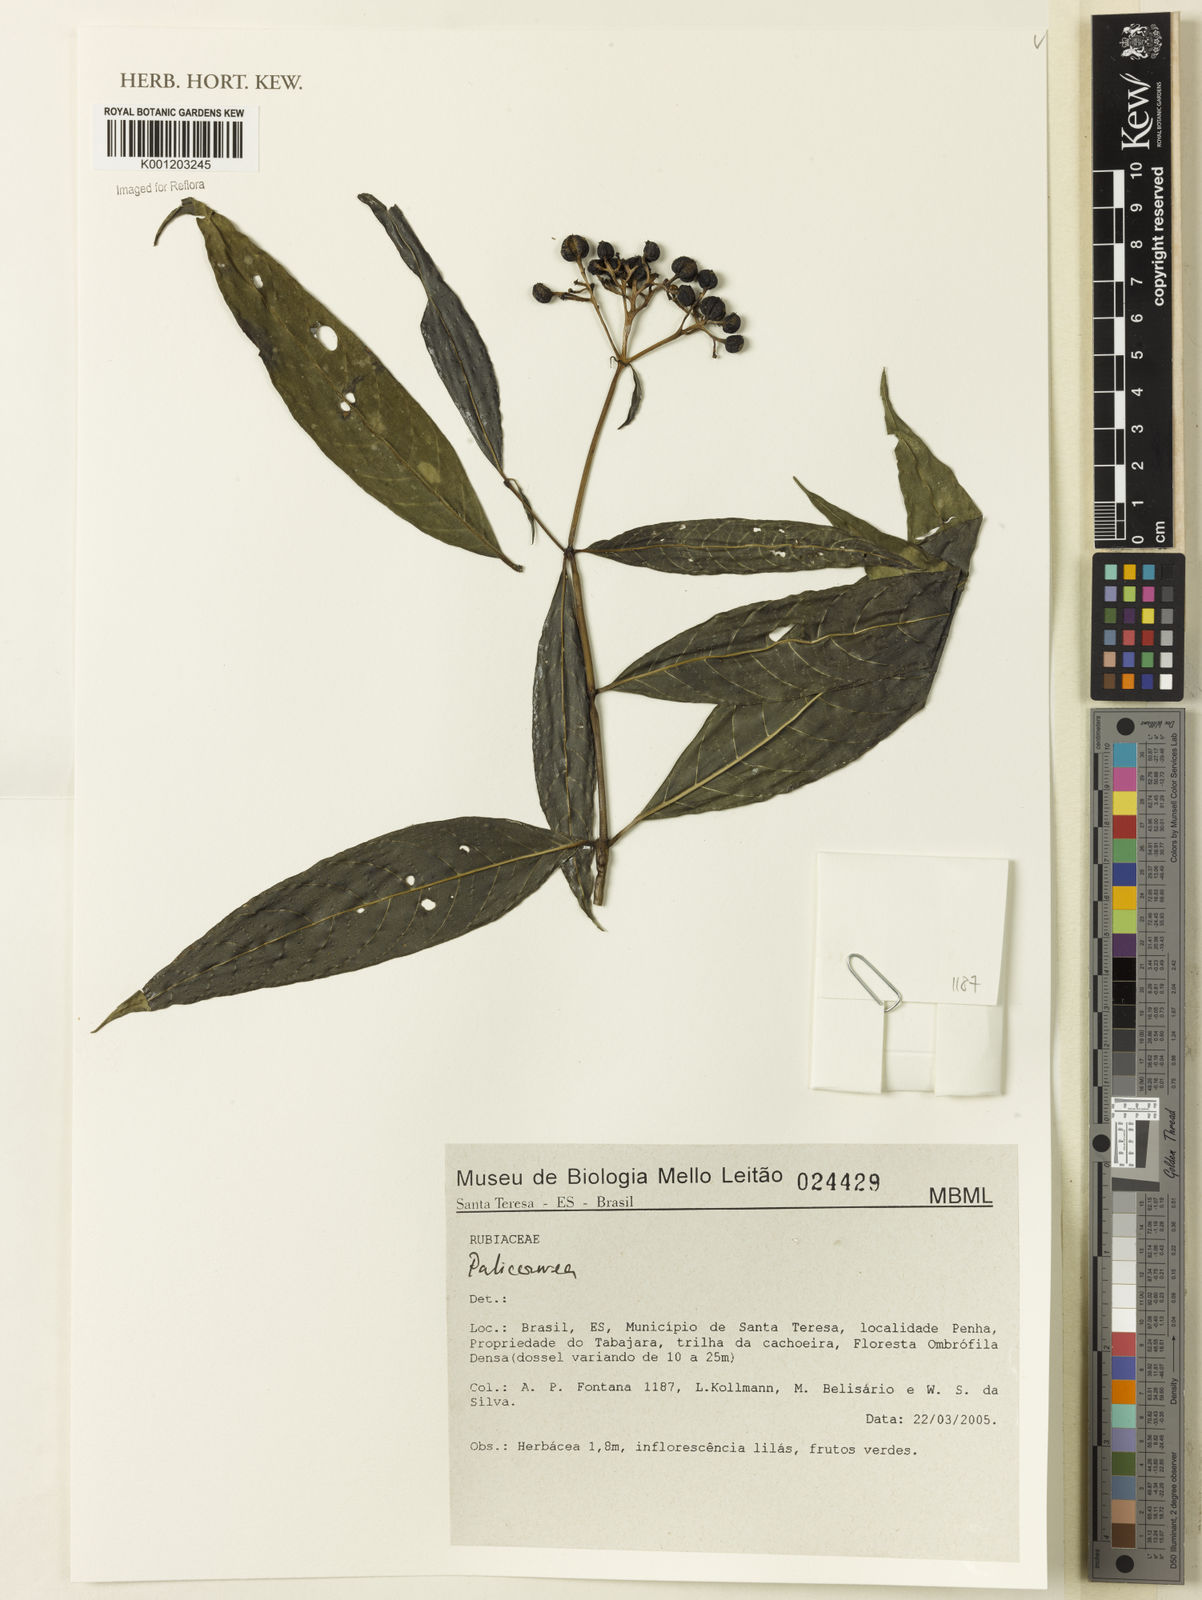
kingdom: Plantae
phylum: Tracheophyta
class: Magnoliopsida
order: Gentianales
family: Rubiaceae
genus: Palicourea
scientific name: Palicourea
